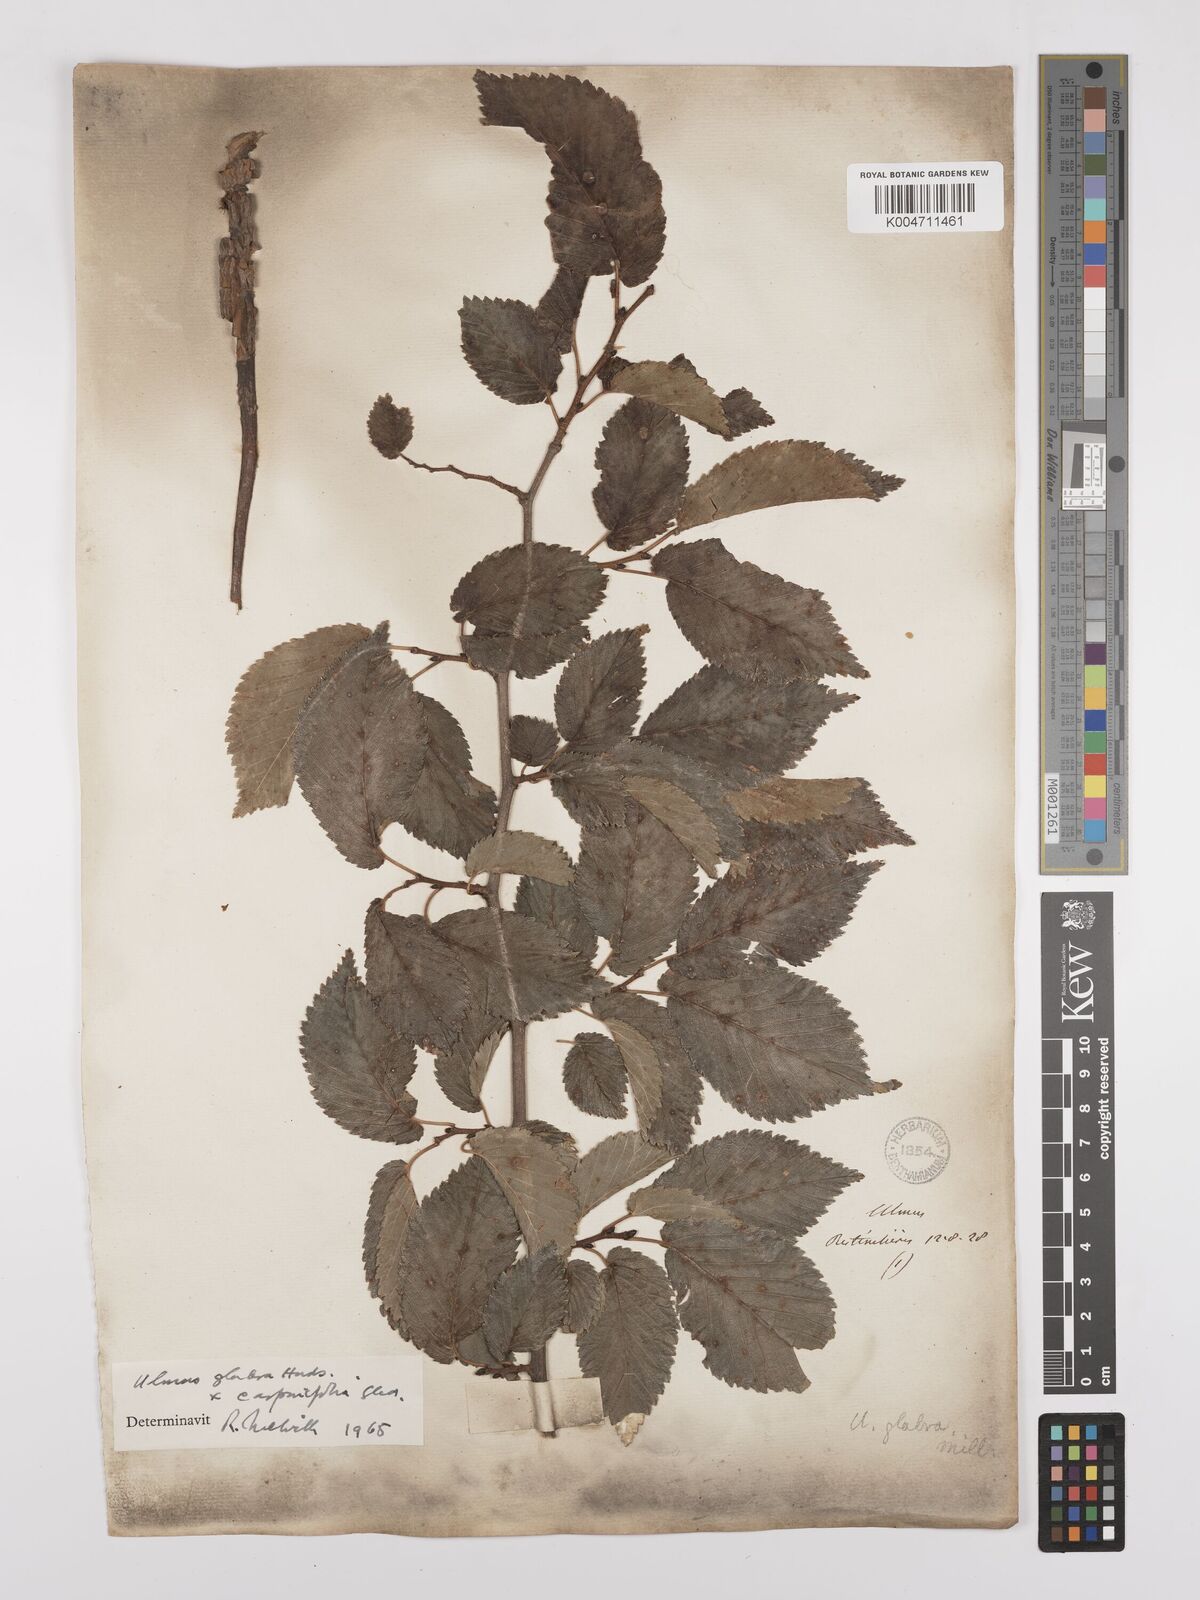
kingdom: Plantae
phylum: Tracheophyta
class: Magnoliopsida
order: Rosales
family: Ulmaceae
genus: Ulmus
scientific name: Ulmus minor
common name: Small-leaved elm
